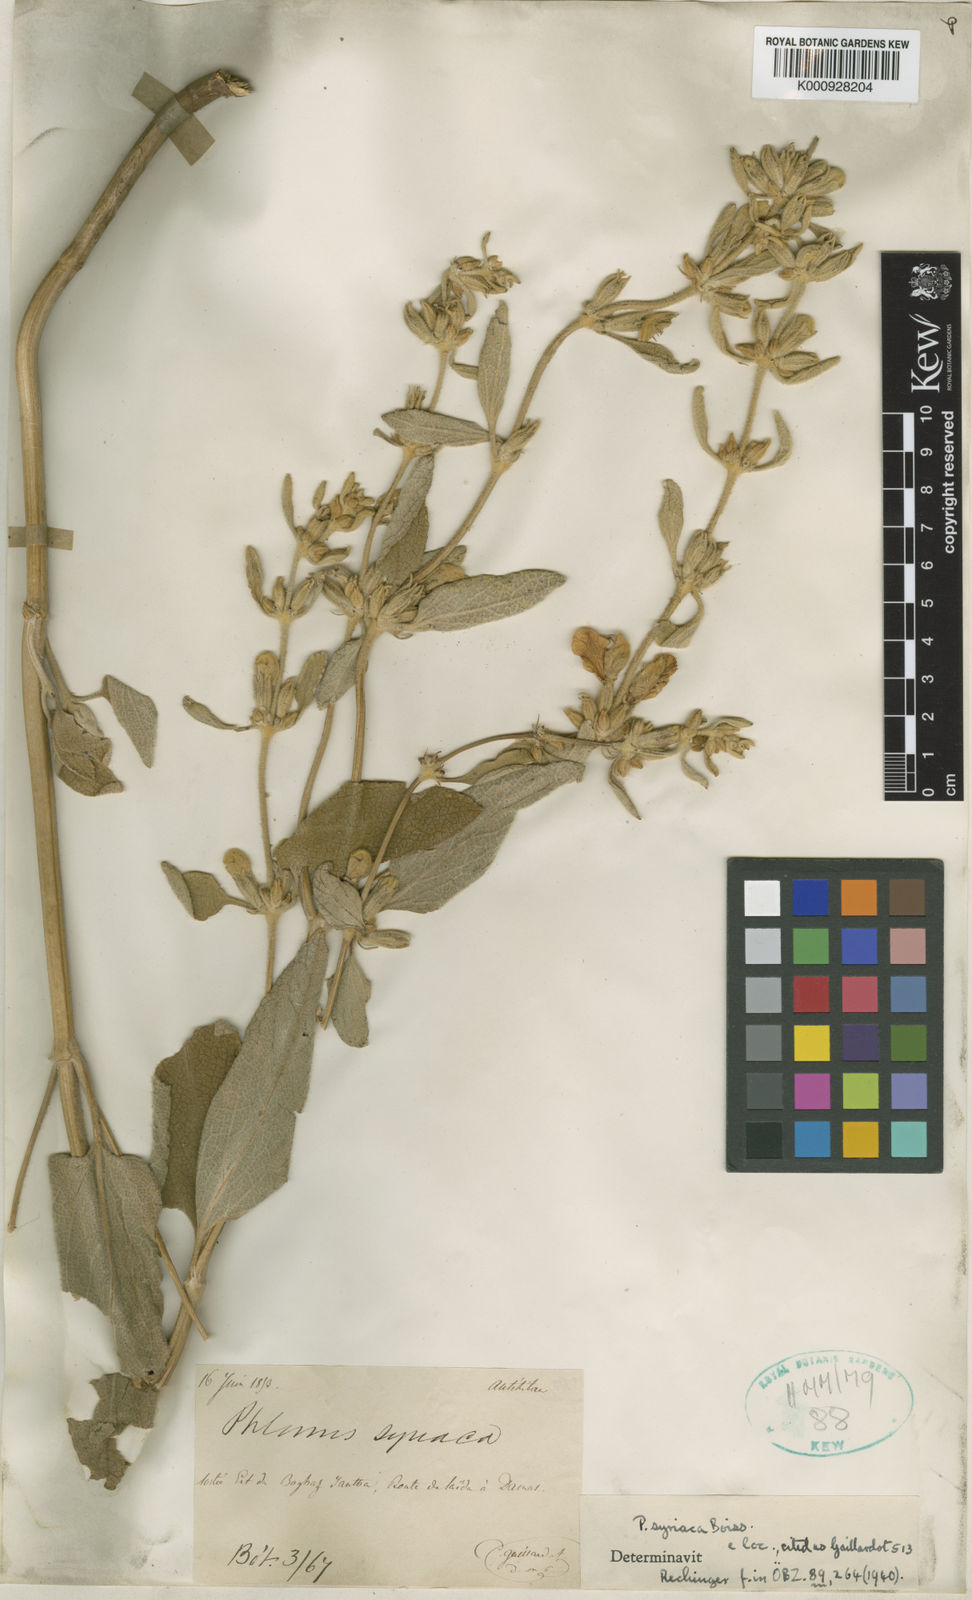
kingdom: Plantae
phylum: Tracheophyta
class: Magnoliopsida
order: Lamiales
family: Lamiaceae
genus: Phlomis
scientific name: Phlomis syriaca
